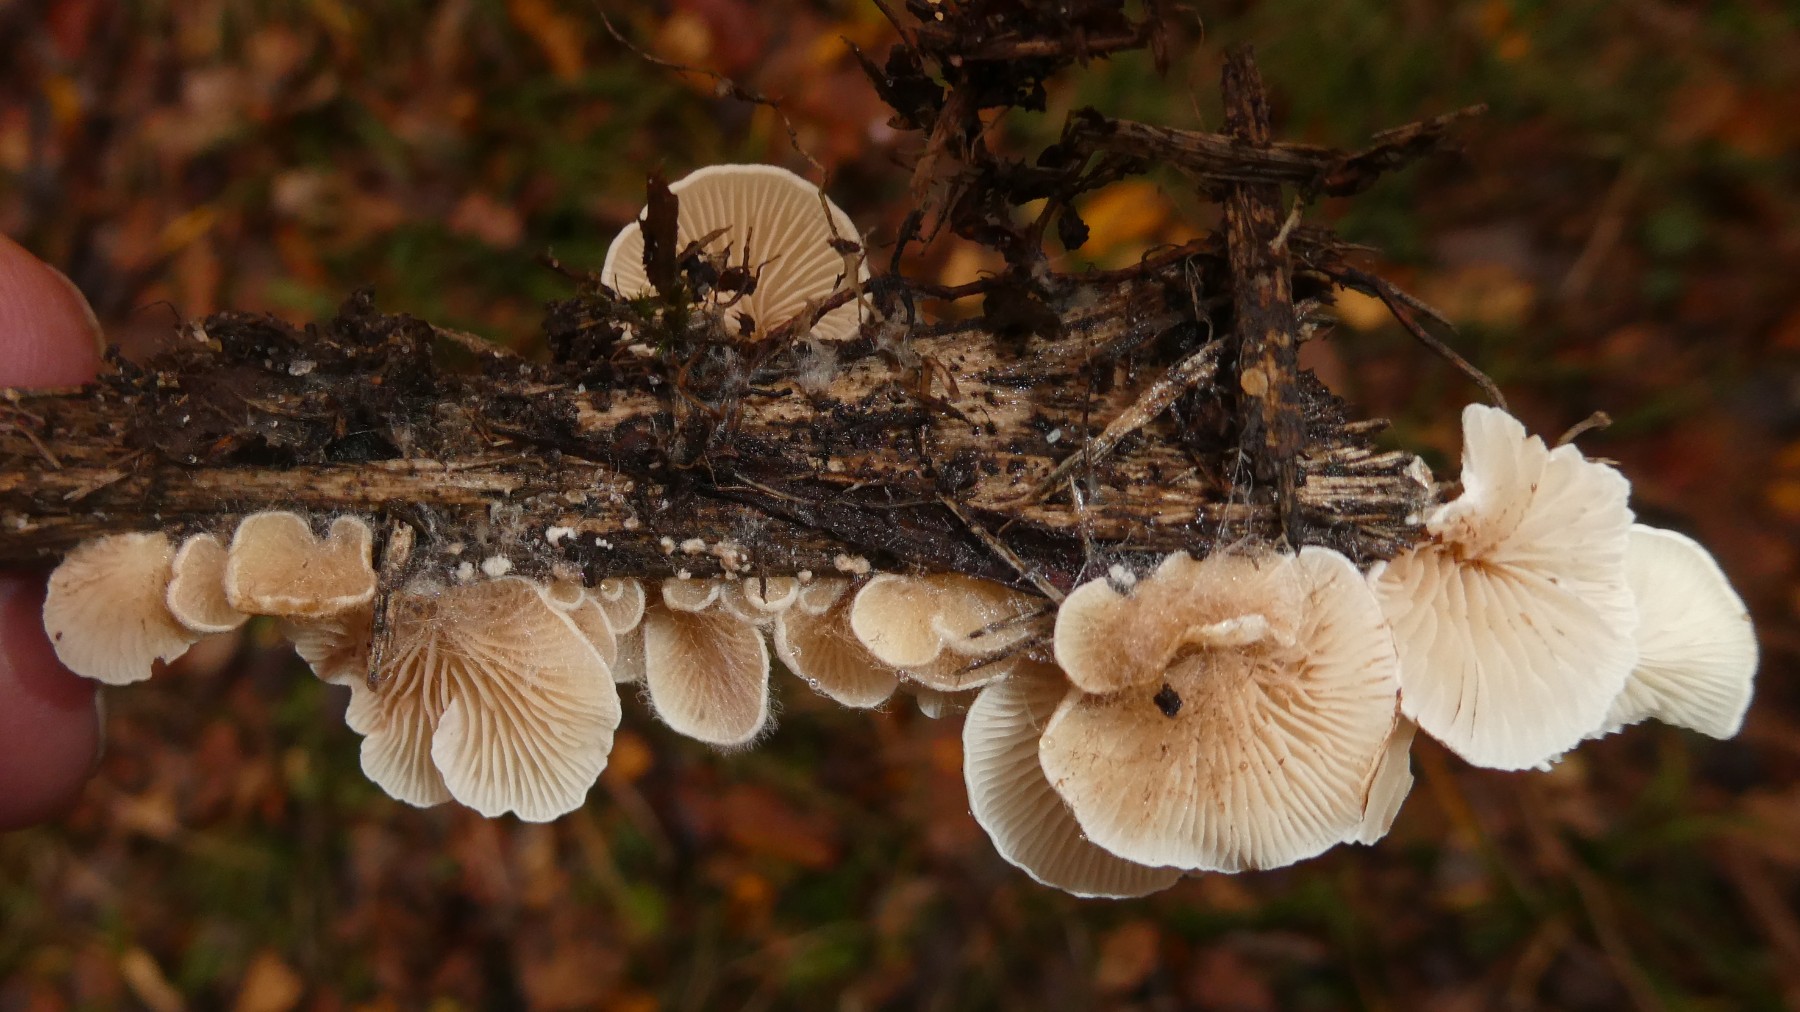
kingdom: Fungi
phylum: Basidiomycota
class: Agaricomycetes
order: Agaricales
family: Crepidotaceae
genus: Crepidotus
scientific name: Crepidotus
